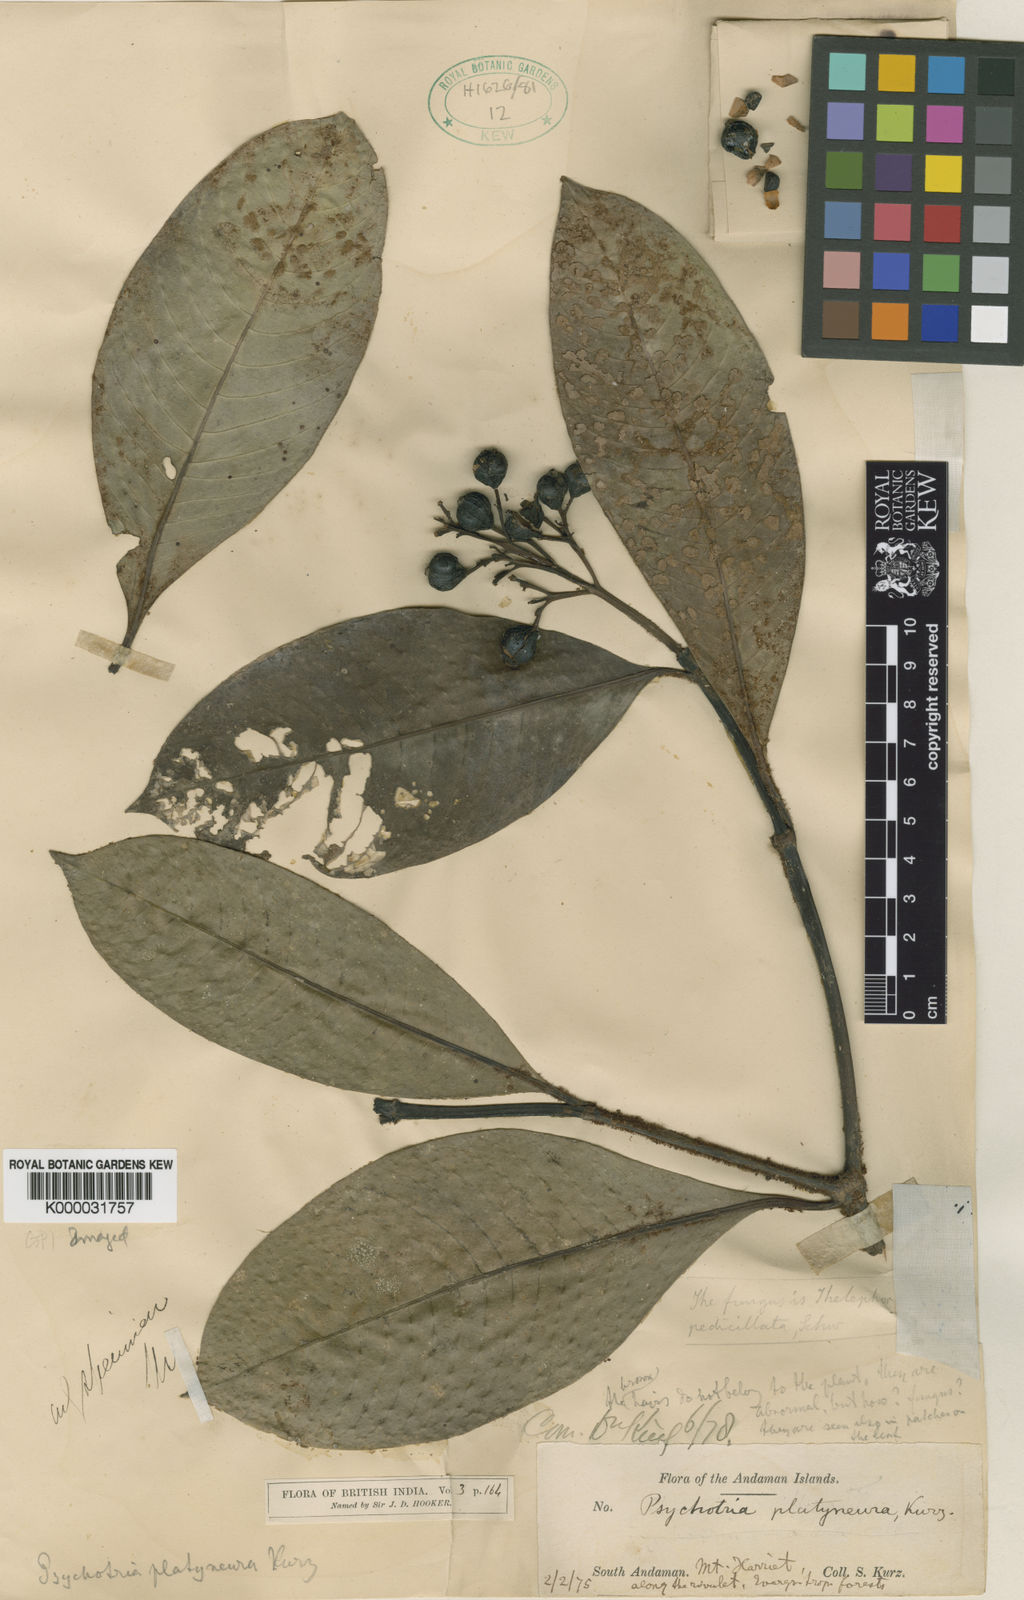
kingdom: Plantae
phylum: Tracheophyta
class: Magnoliopsida
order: Gentianales
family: Rubiaceae
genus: Psychotria
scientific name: Psychotria platyneura
